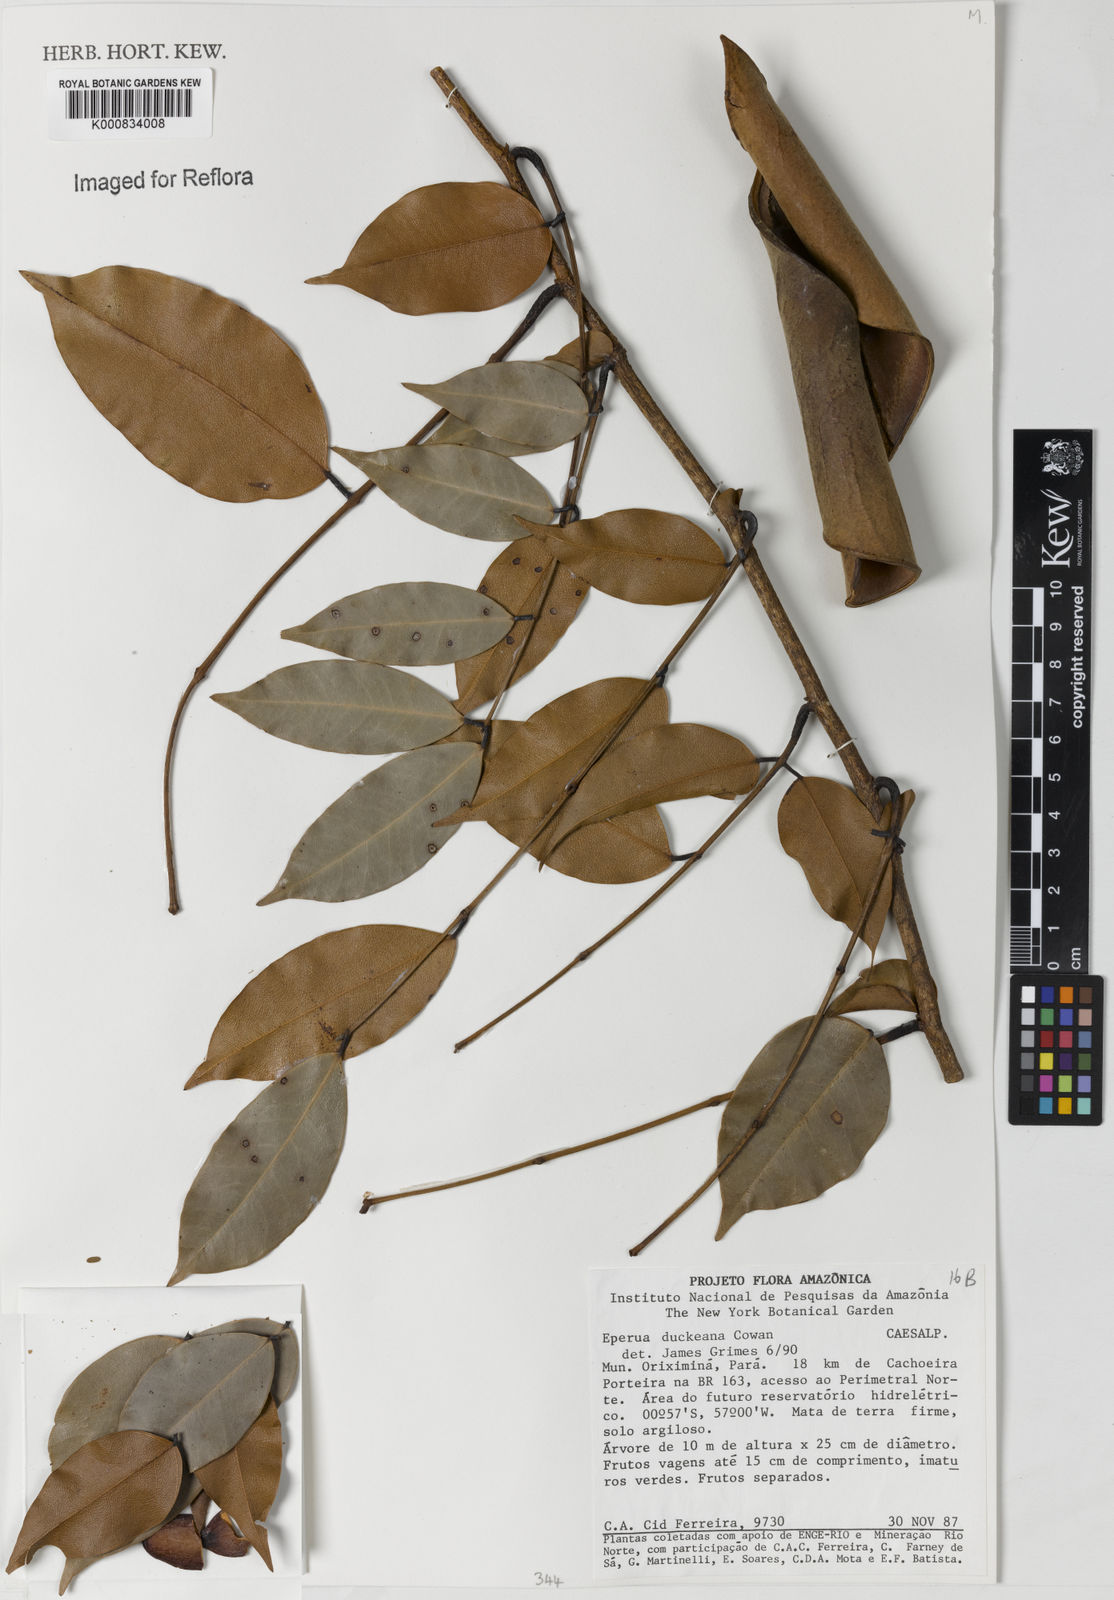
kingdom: Plantae
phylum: Tracheophyta
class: Magnoliopsida
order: Fabales
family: Fabaceae
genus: Eperua
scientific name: Eperua duckeana
